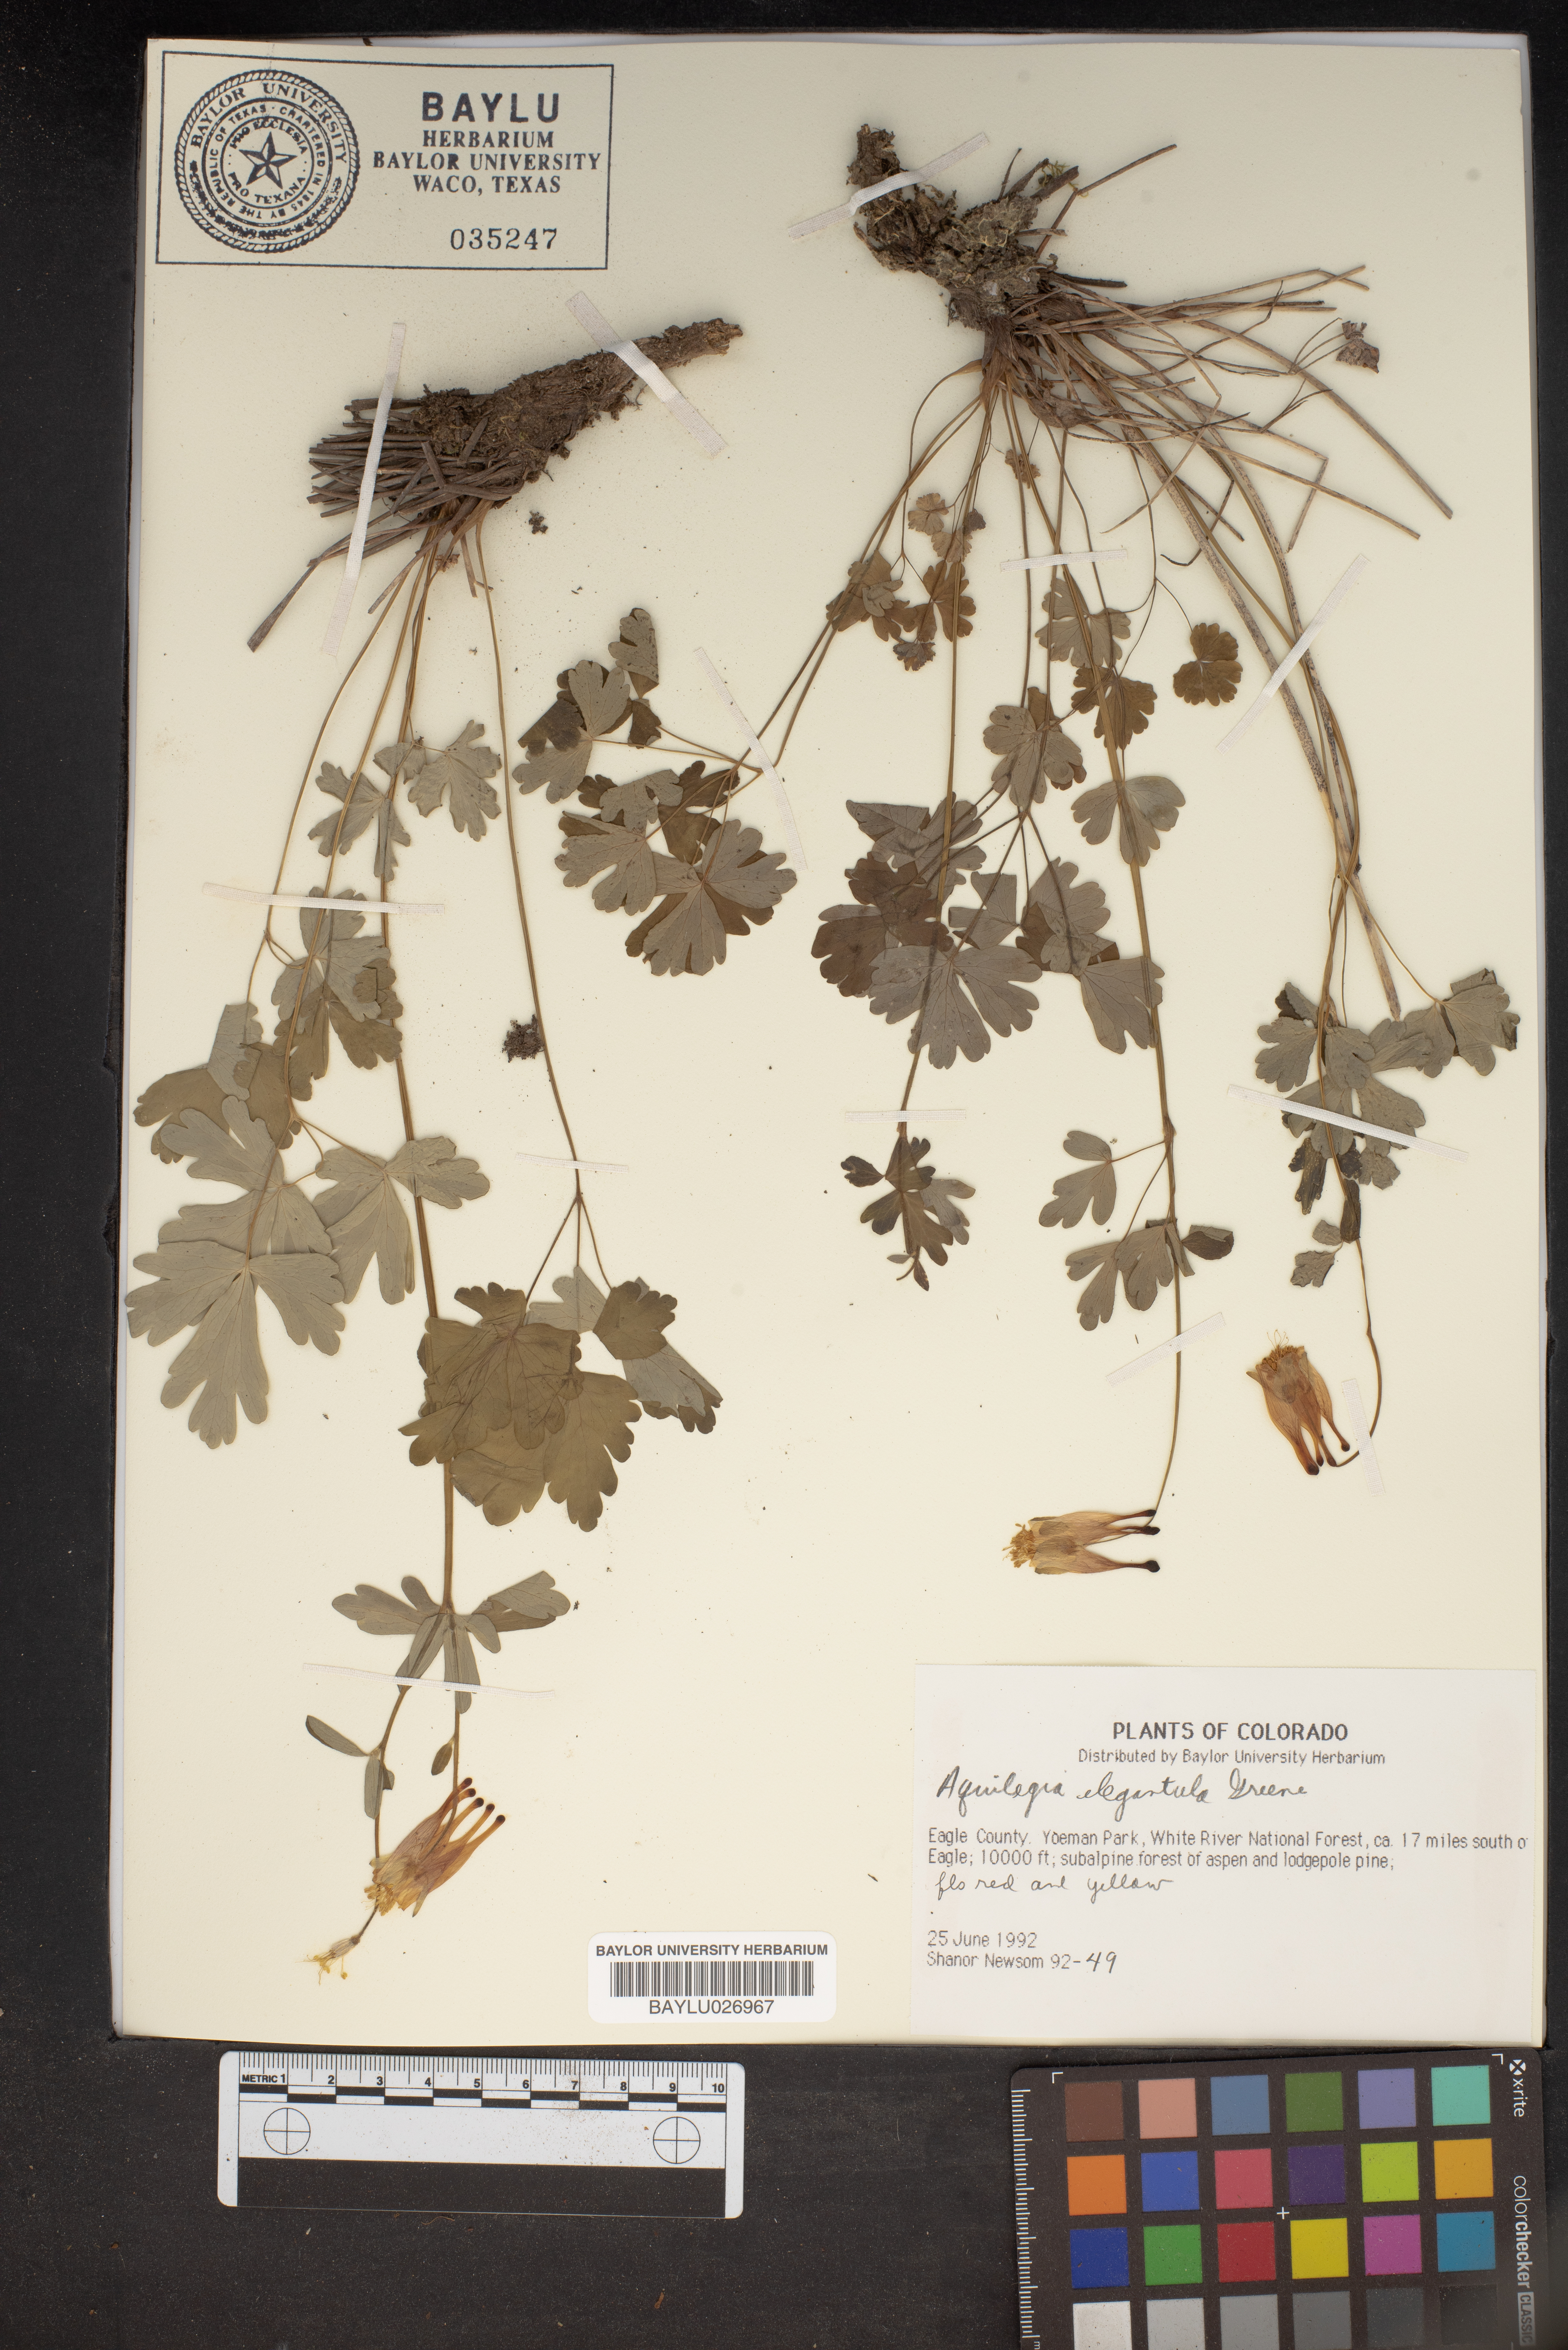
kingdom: Plantae
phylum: Tracheophyta
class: Magnoliopsida
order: Ranunculales
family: Ranunculaceae
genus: Aquilegia
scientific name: Aquilegia elegantula
